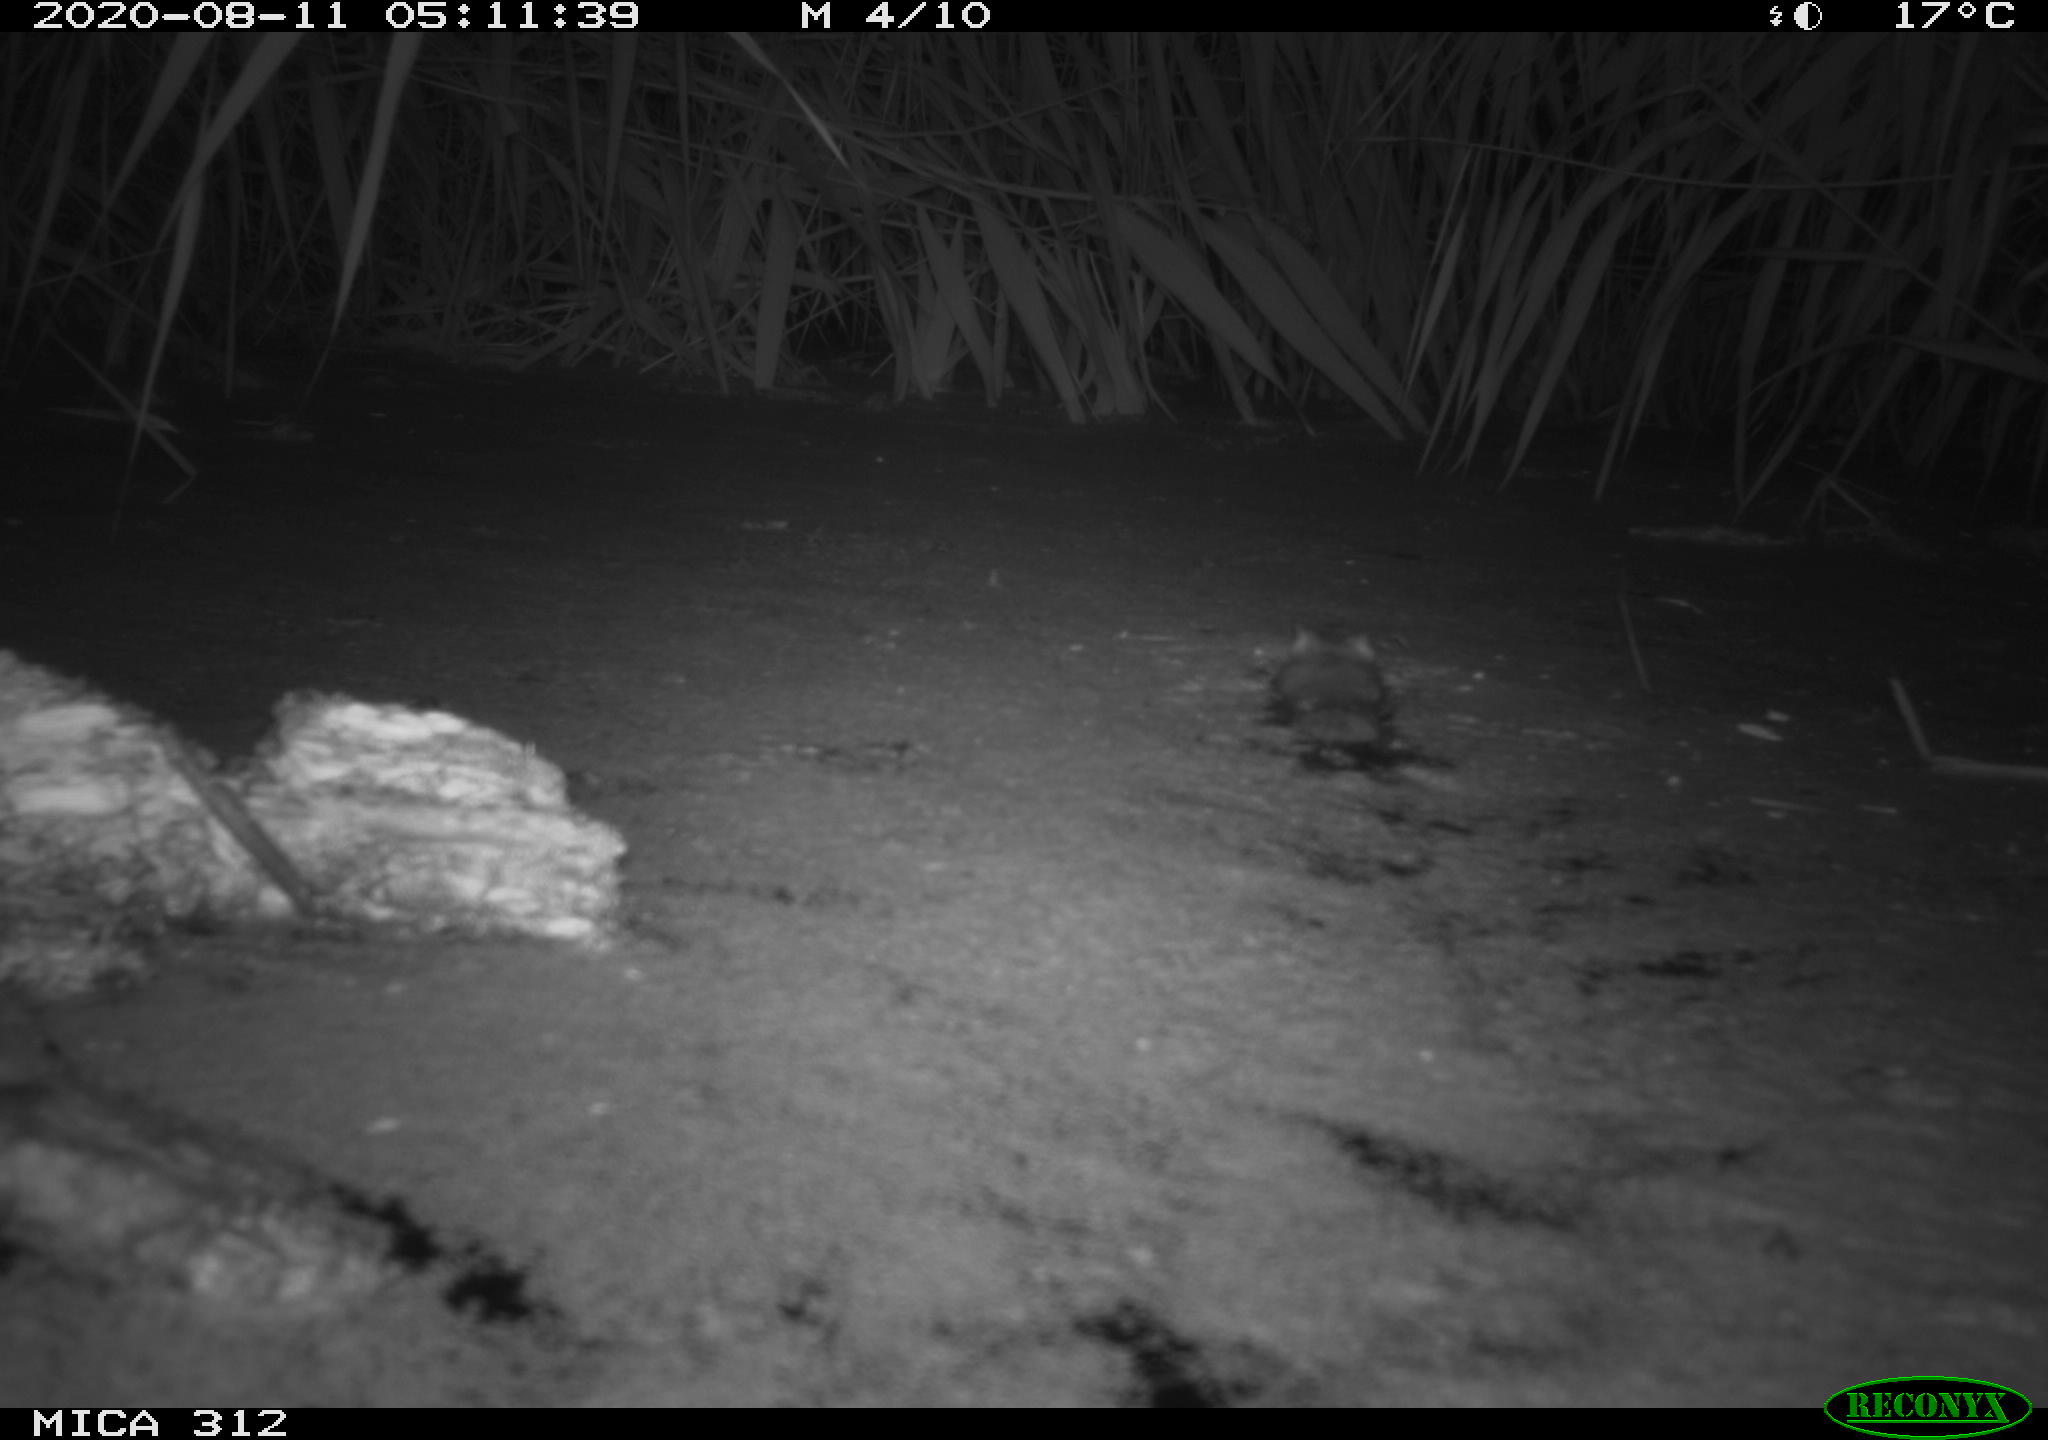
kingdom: Animalia
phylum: Chordata
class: Mammalia
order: Rodentia
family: Cricetidae
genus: Ondatra
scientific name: Ondatra zibethicus
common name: Muskrat
